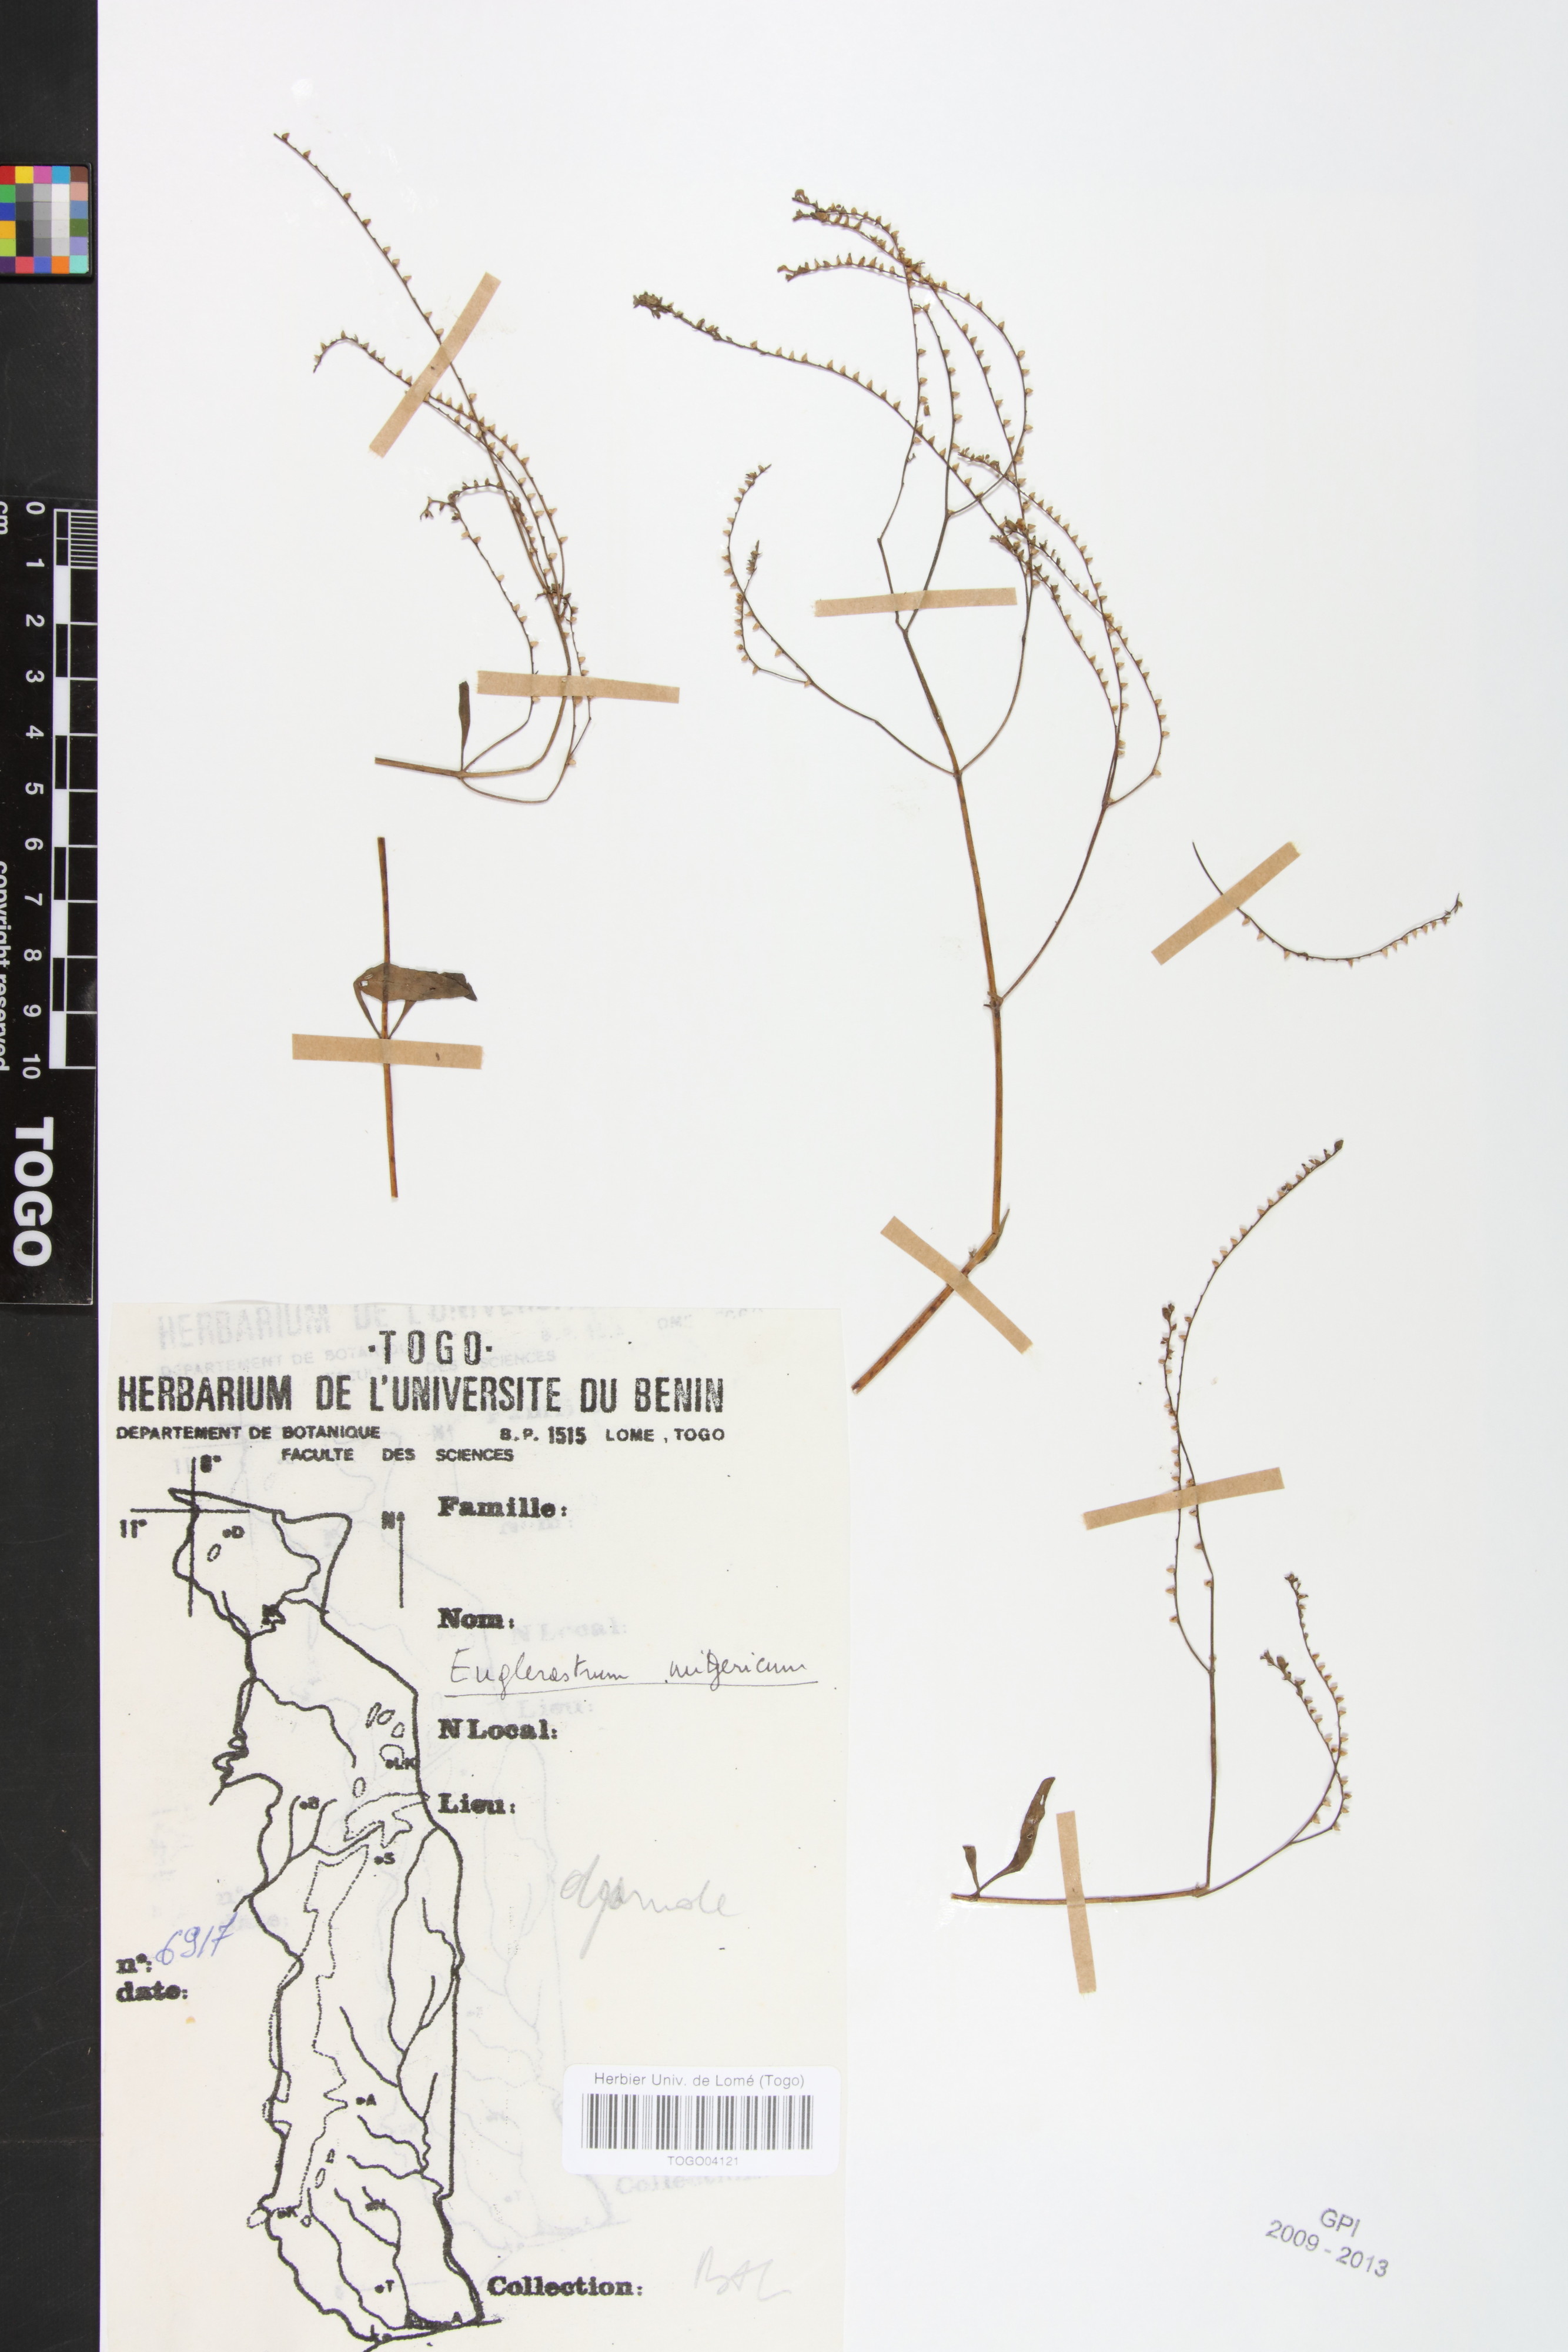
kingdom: Plantae
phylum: Tracheophyta
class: Magnoliopsida
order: Lamiales
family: Lamiaceae
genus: Coleus
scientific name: Coleus nigericus
